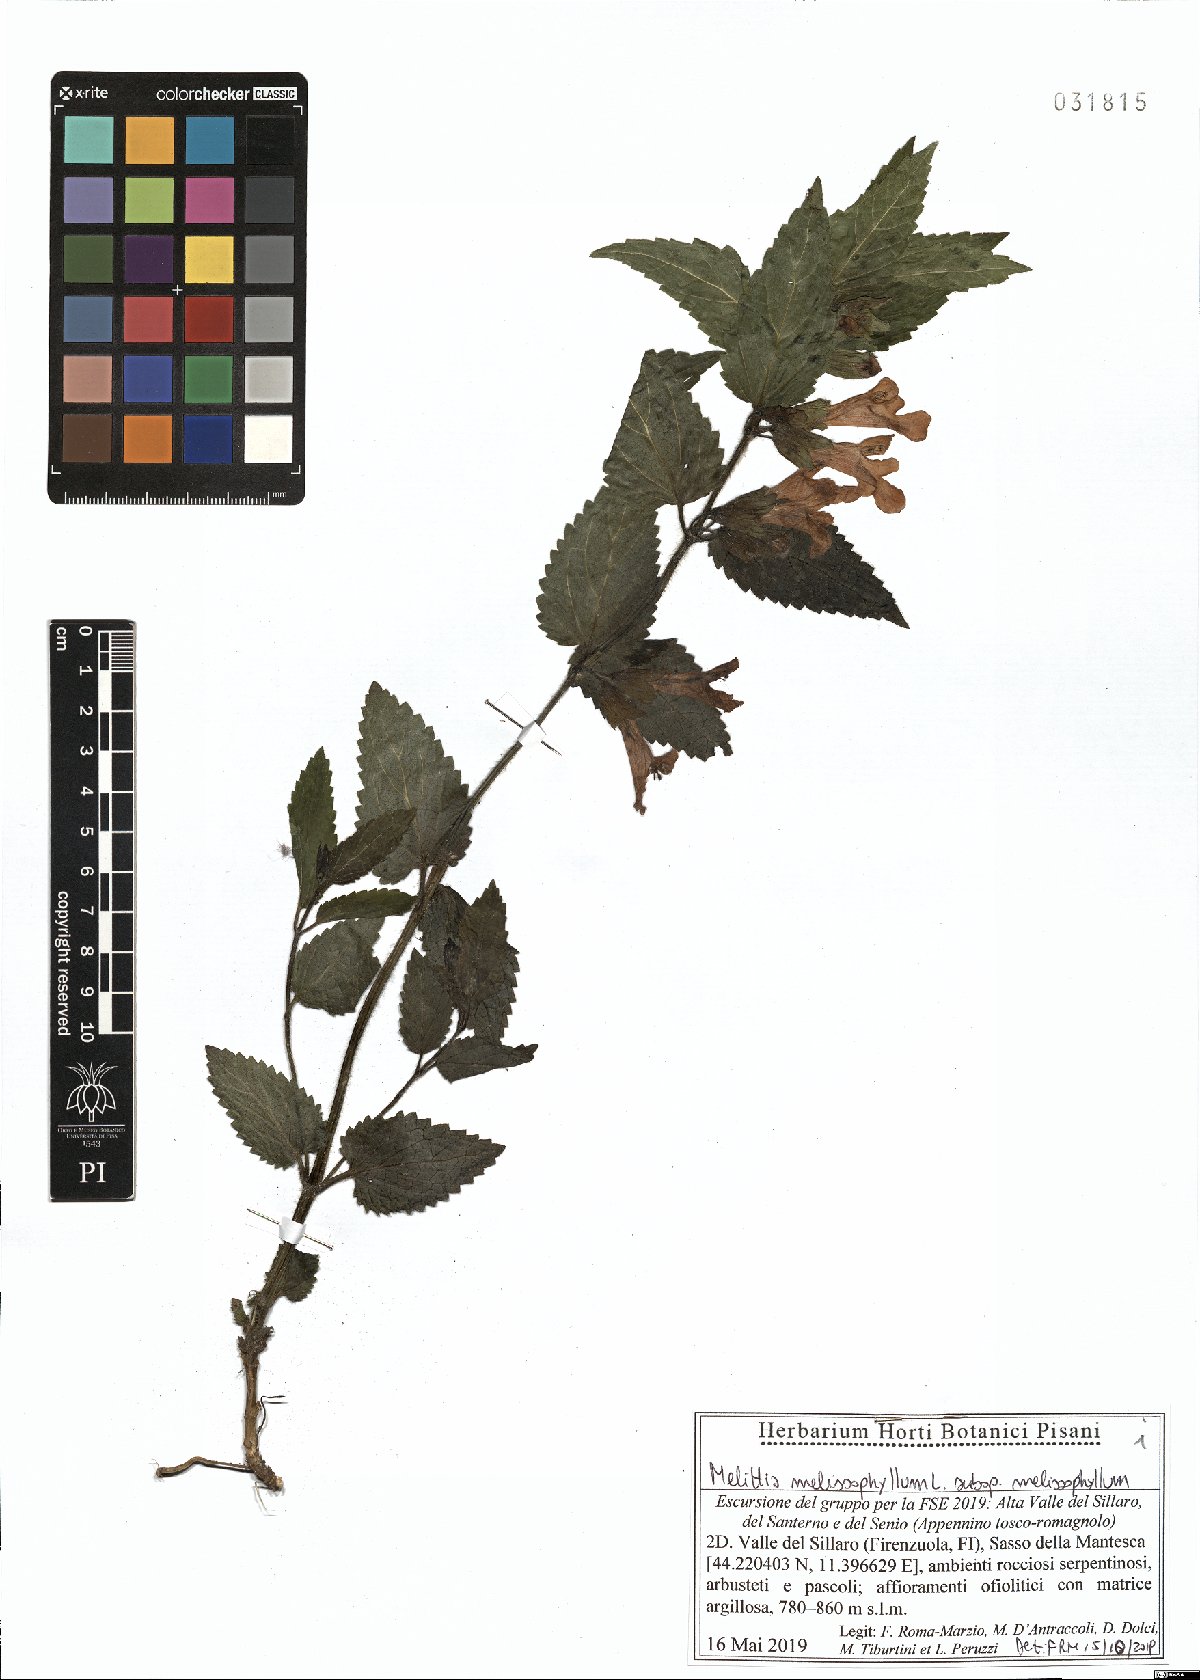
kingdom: Plantae
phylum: Tracheophyta
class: Magnoliopsida
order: Lamiales
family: Lamiaceae
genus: Melittis
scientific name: Melittis melissophyllum
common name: Bastard balm
